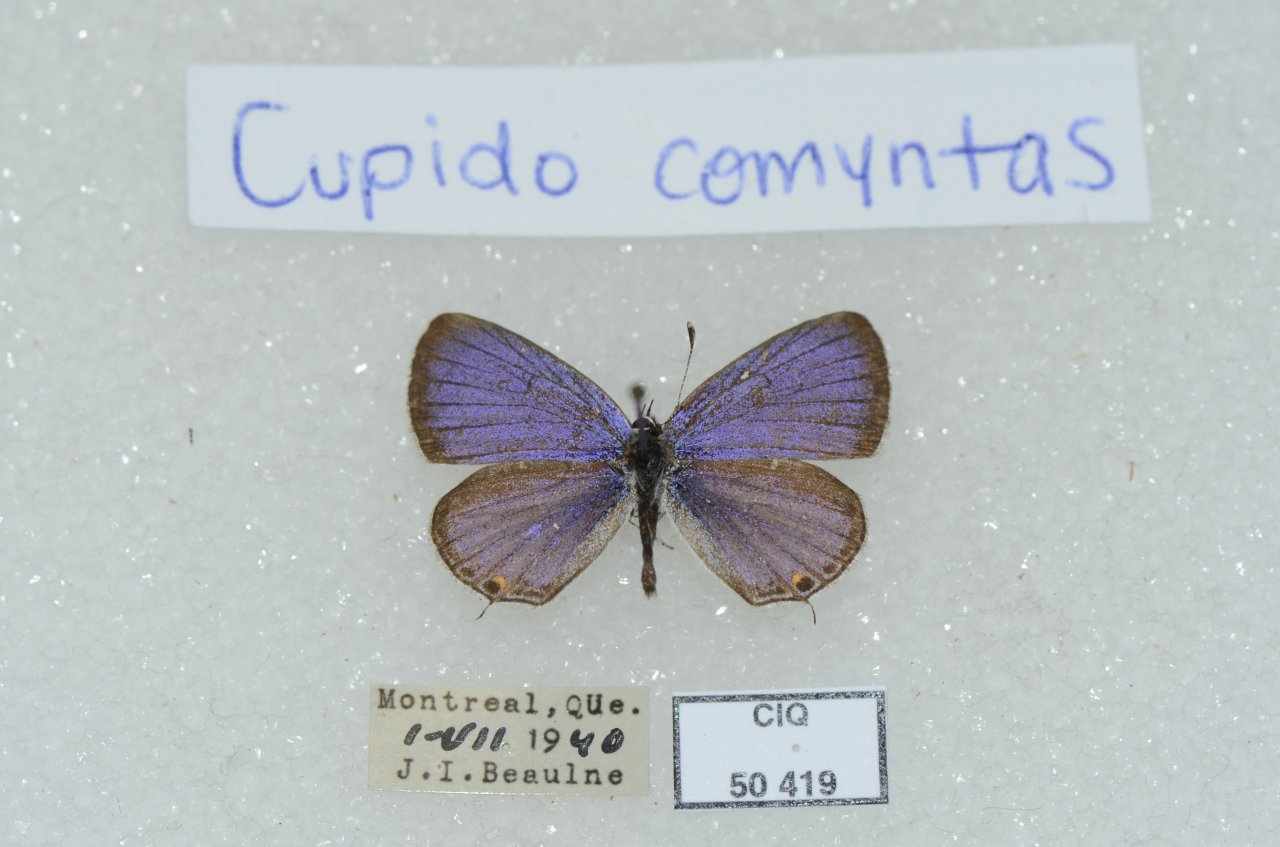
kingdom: Animalia
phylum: Arthropoda
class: Insecta
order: Lepidoptera
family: Lycaenidae
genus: Elkalyce
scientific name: Elkalyce comyntas
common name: Eastern Tailed-Blue
